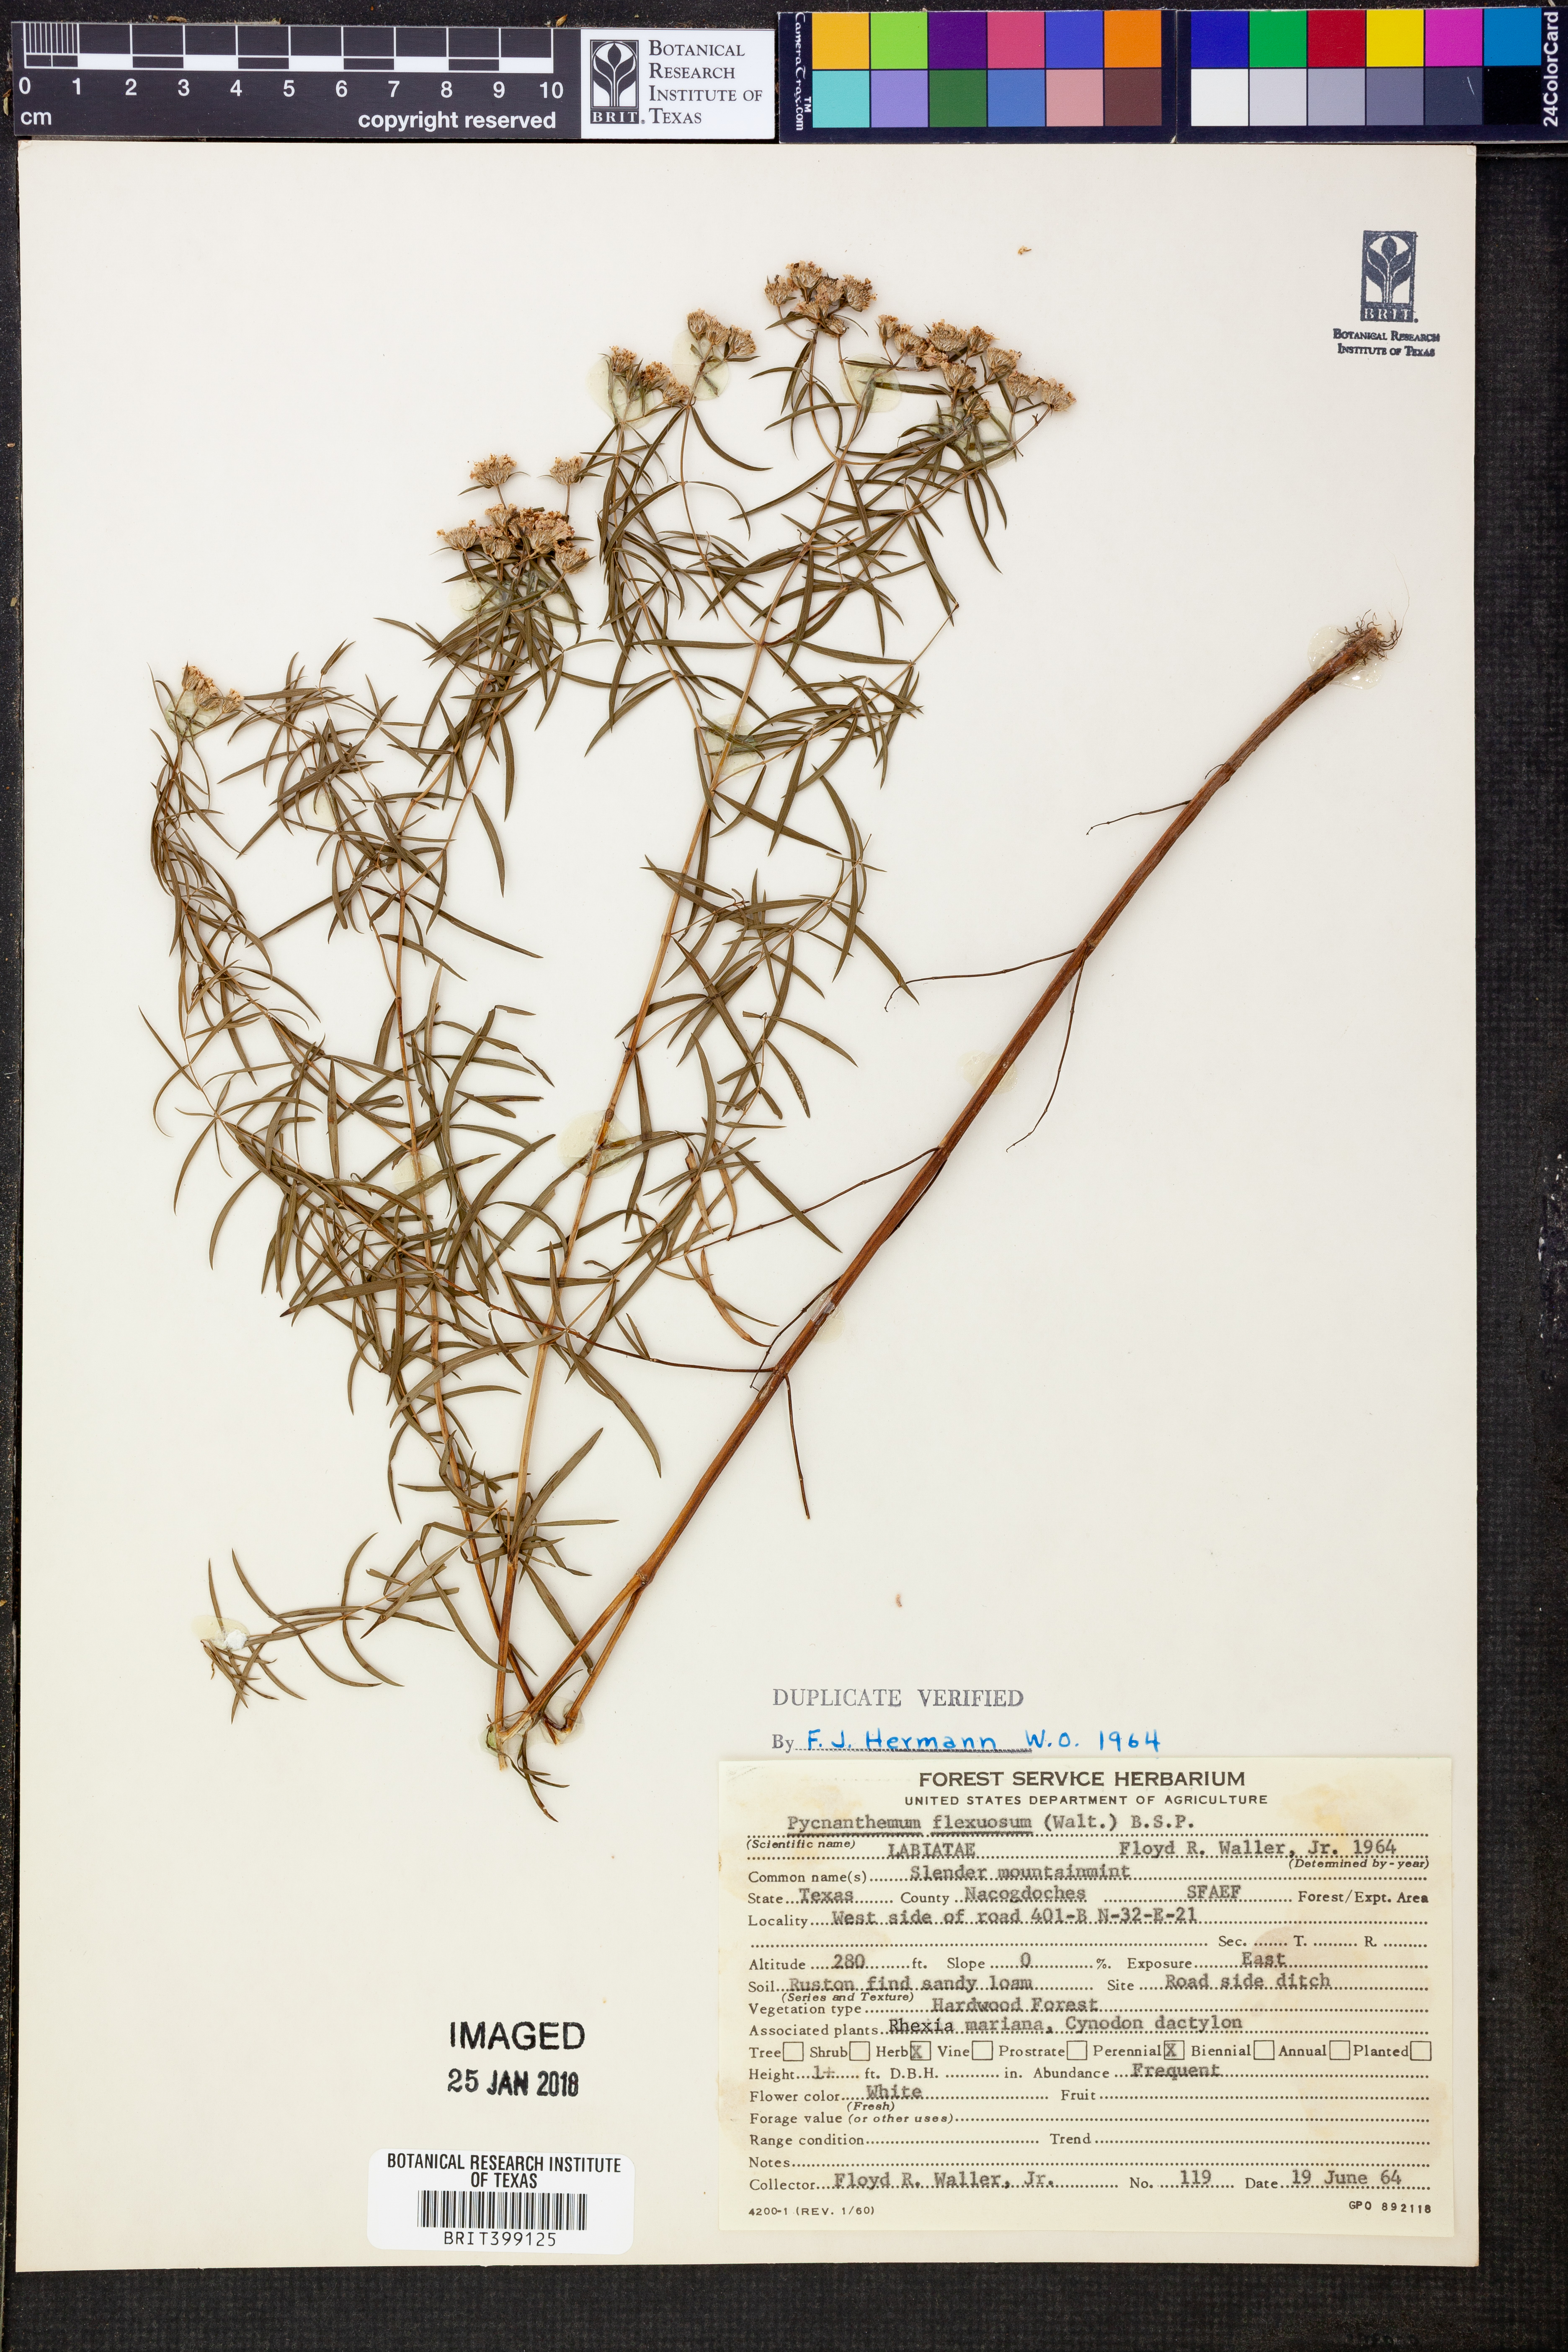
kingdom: Plantae
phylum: Tracheophyta
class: Magnoliopsida
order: Lamiales
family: Lamiaceae
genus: Pycnanthemum
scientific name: Pycnanthemum flexuosum
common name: Appalachian mountain-mint
